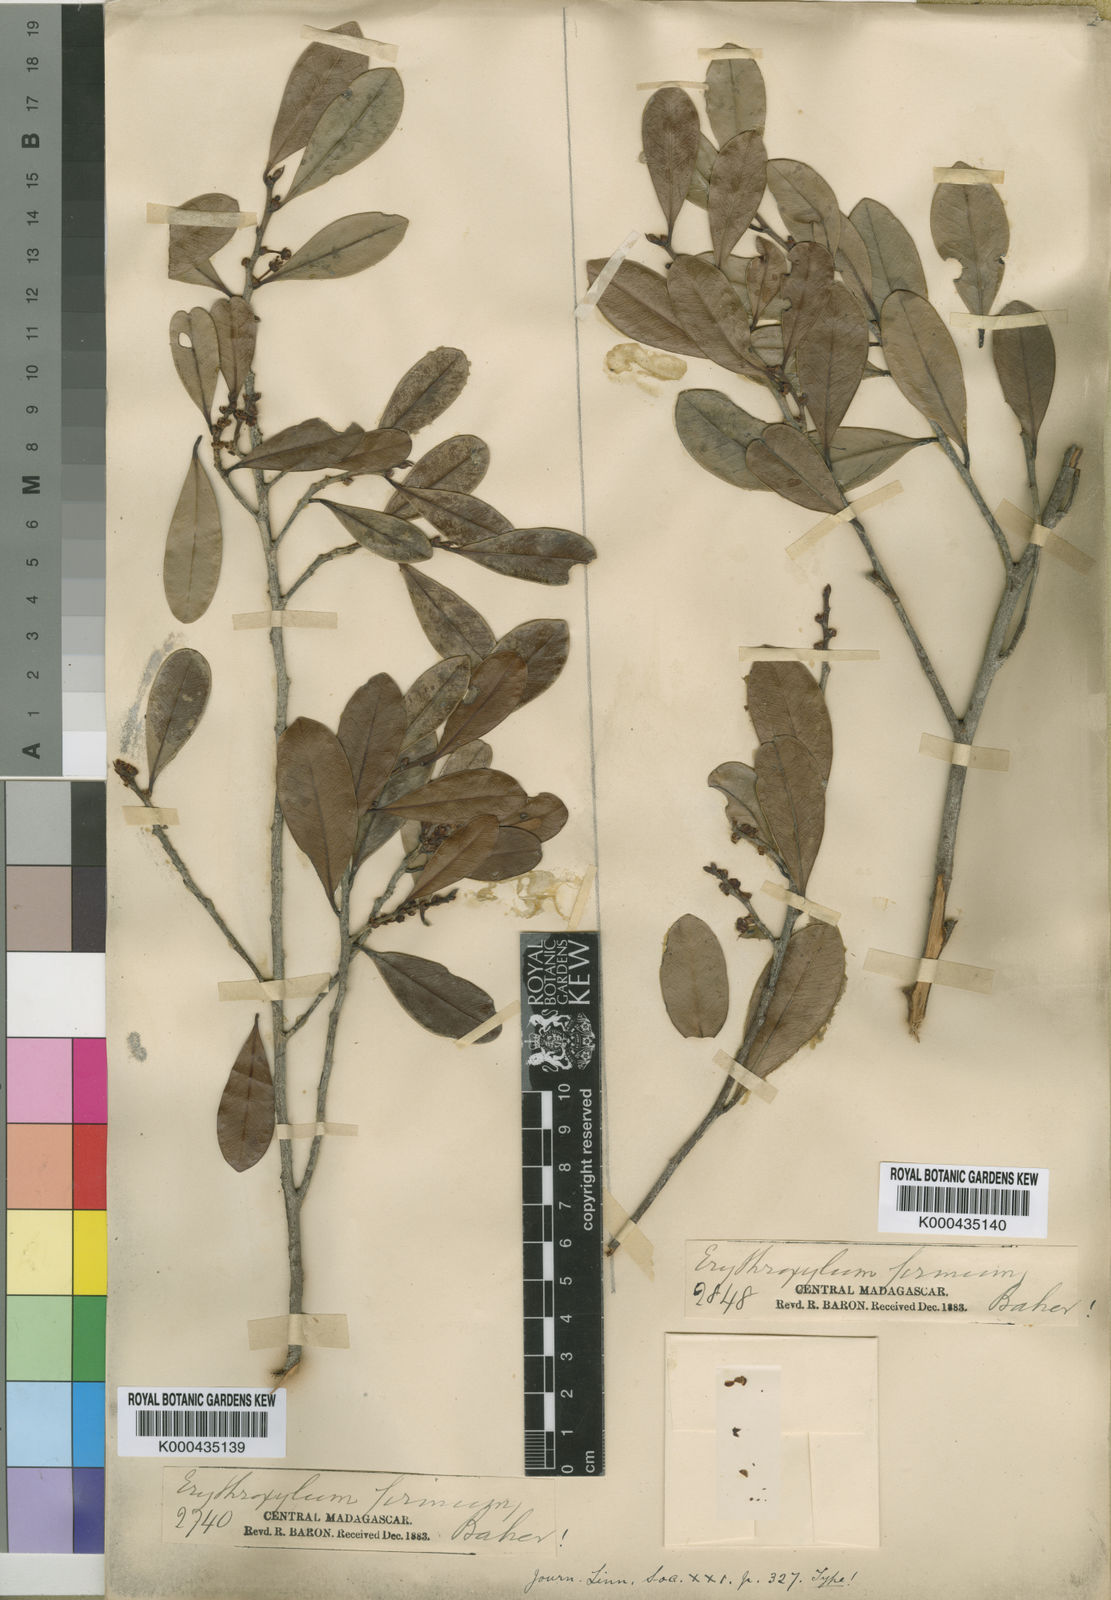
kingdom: Plantae
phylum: Tracheophyta
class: Magnoliopsida
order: Malpighiales
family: Erythroxylaceae
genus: Erythroxylum
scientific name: Erythroxylum firmum
